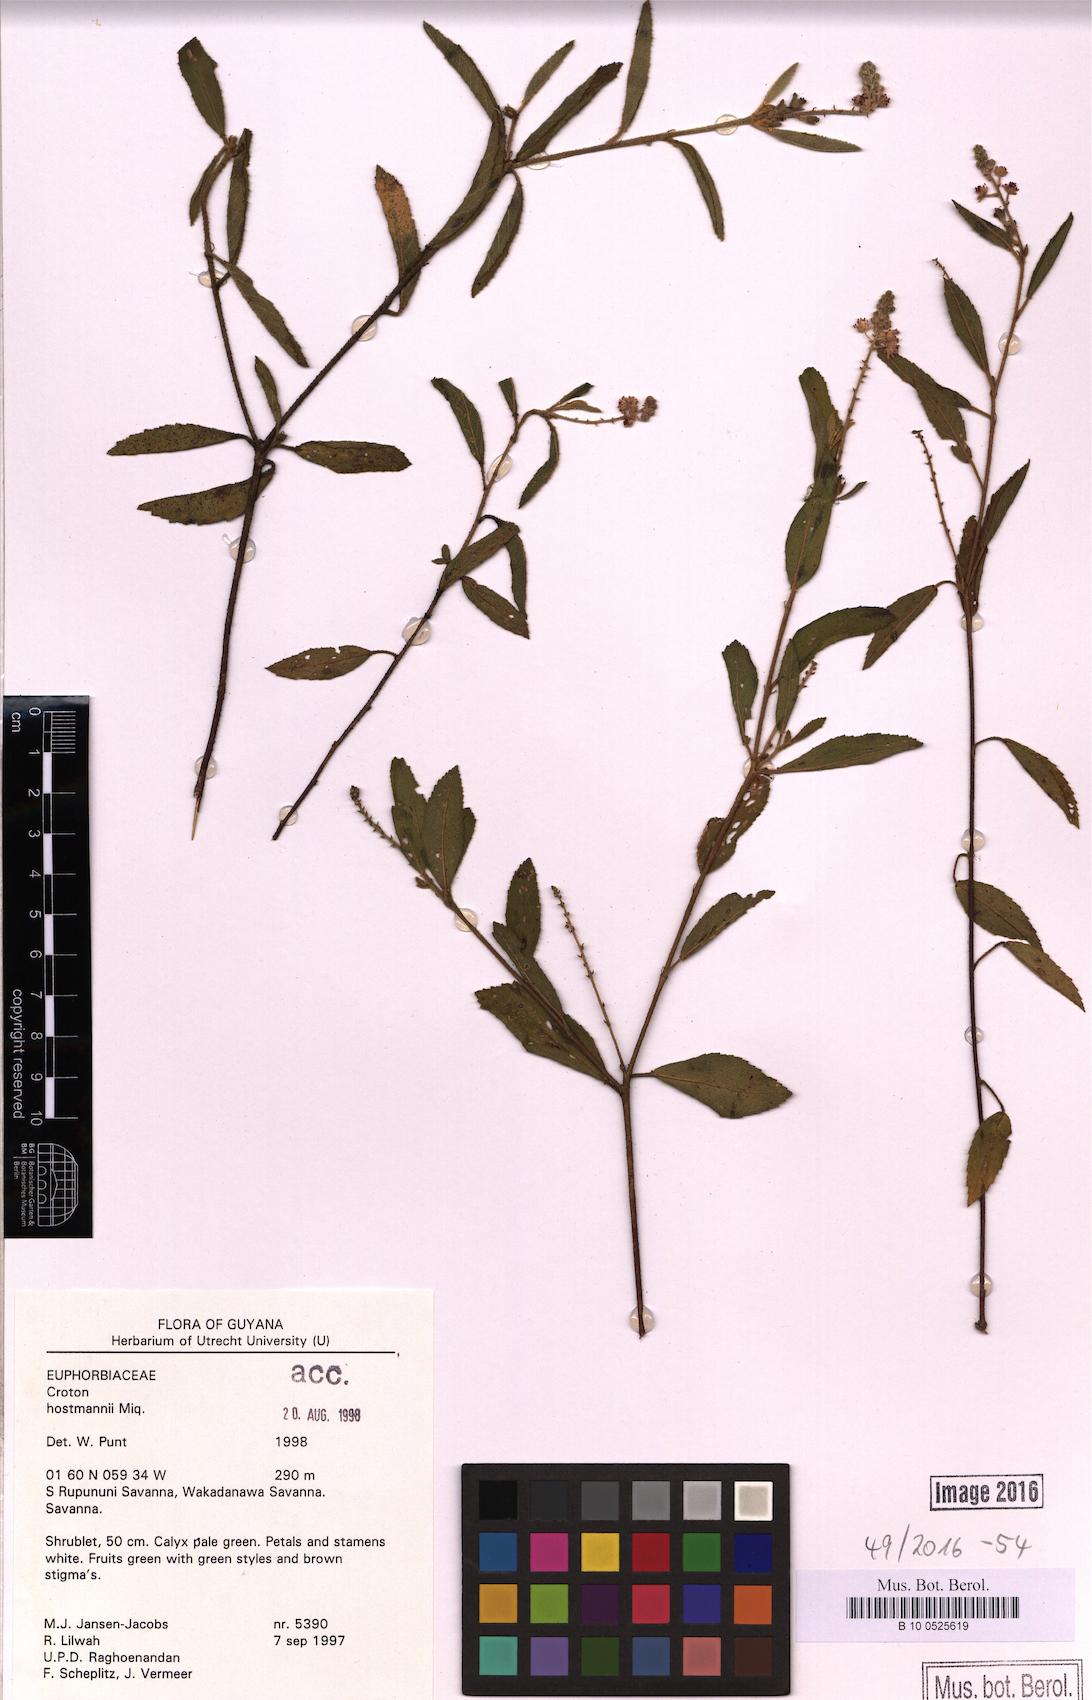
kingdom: Plantae
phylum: Tracheophyta
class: Magnoliopsida
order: Malpighiales
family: Euphorbiaceae
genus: Croton
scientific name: Croton hostmannii
